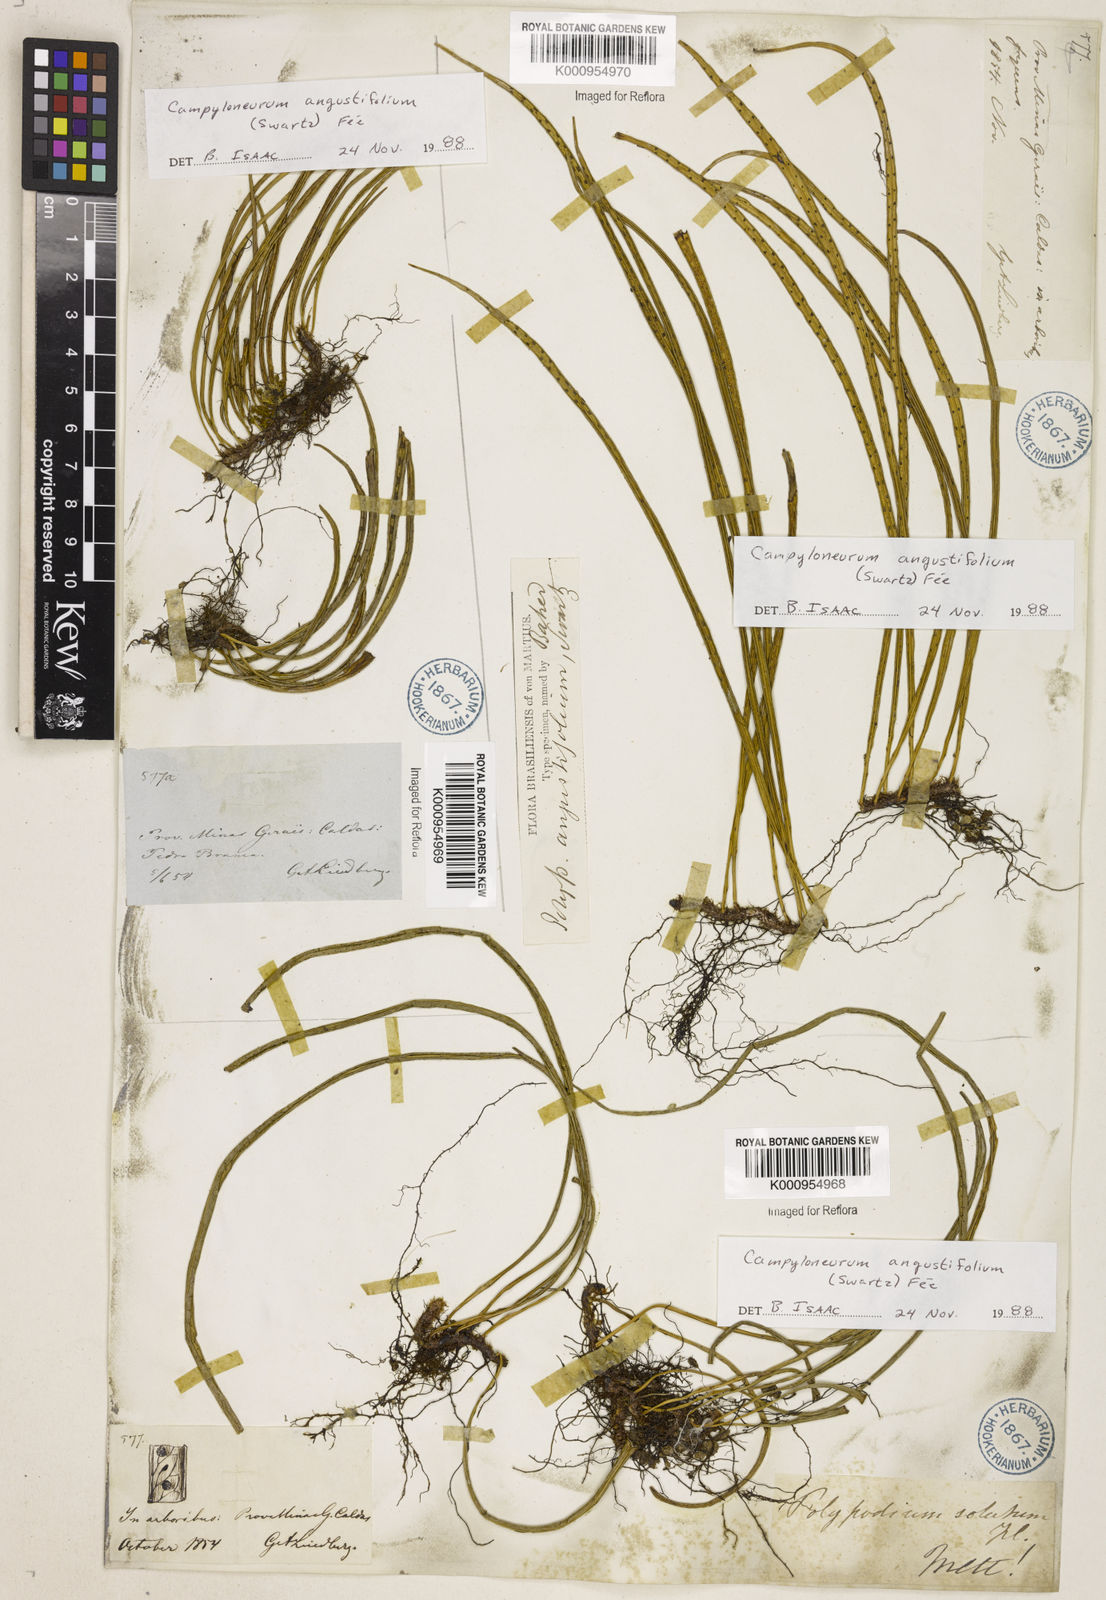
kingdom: Plantae
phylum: Tracheophyta
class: Polypodiopsida
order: Polypodiales
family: Polypodiaceae
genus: Campyloneurum
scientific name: Campyloneurum
